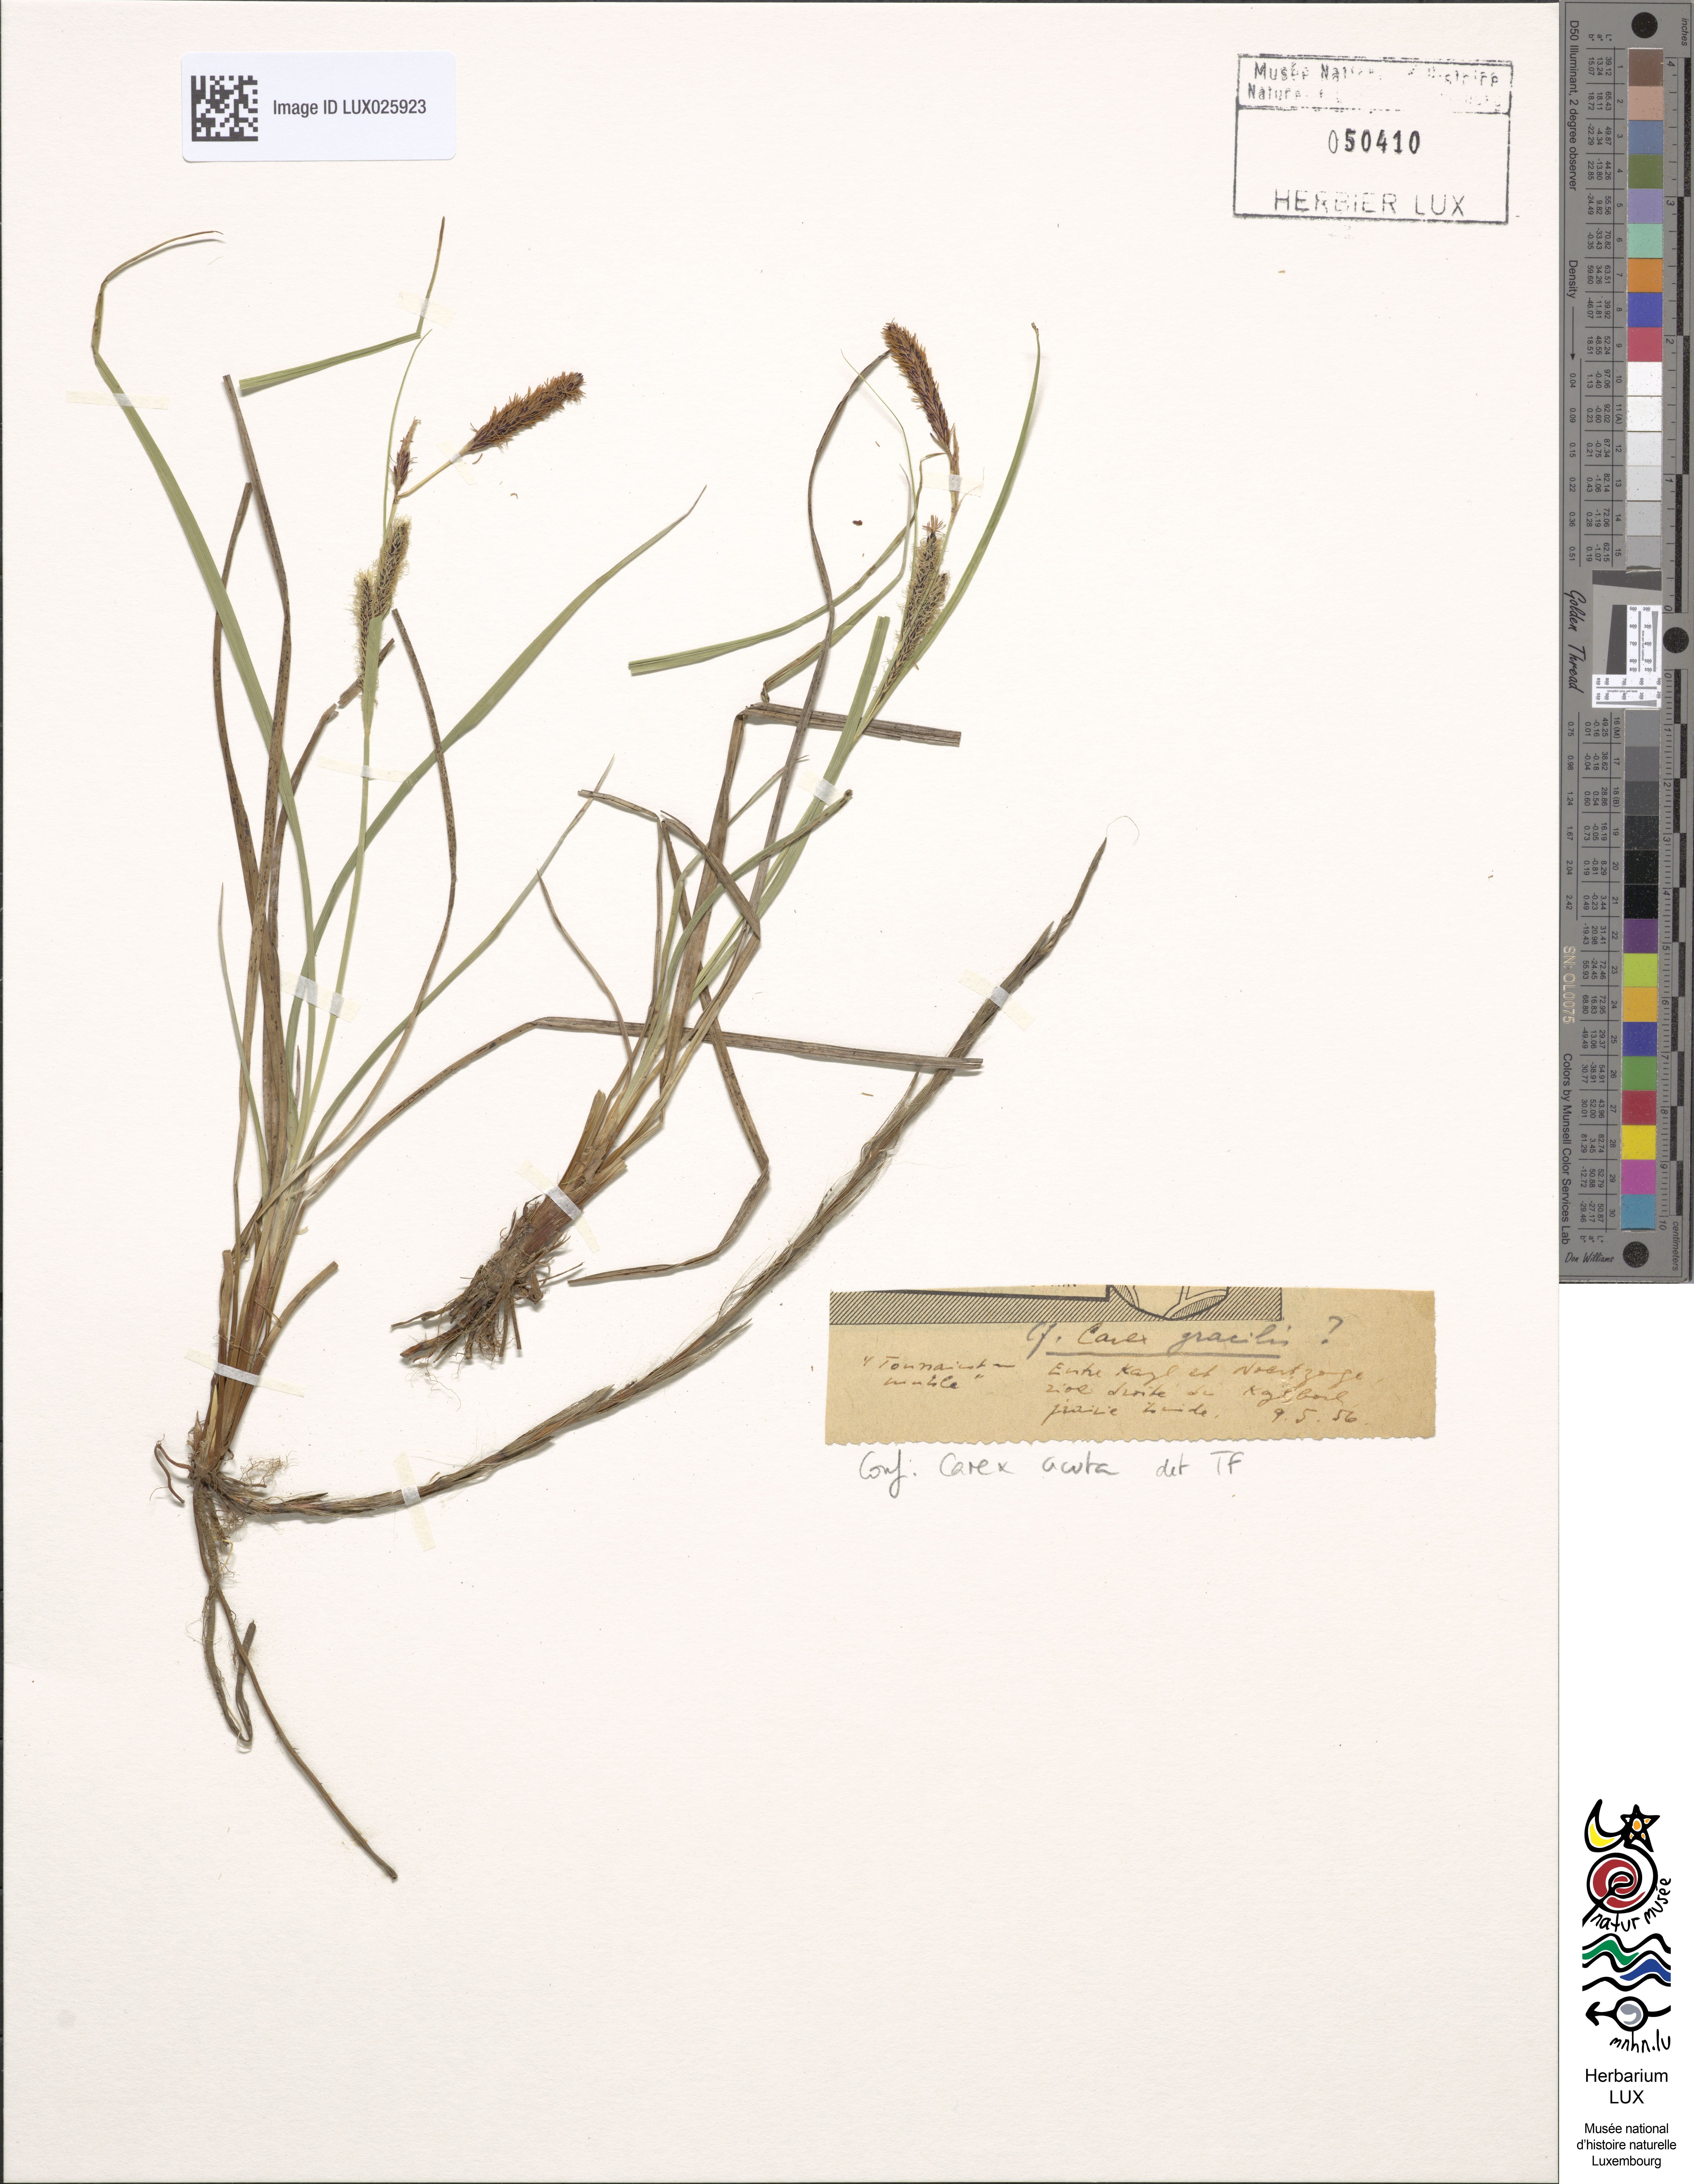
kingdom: Plantae
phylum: Tracheophyta
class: Liliopsida
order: Poales
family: Cyperaceae
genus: Carex
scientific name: Carex acuta
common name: Slender tufted-sedge
